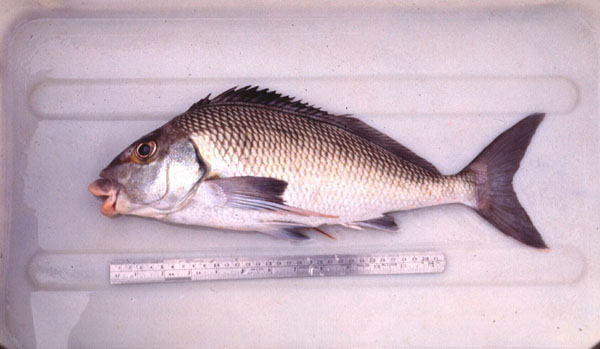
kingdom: Animalia
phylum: Chordata
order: Perciformes
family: Cheilodactylidae
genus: Chirodactylus
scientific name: Chirodactylus grandis
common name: Bank steenbras
